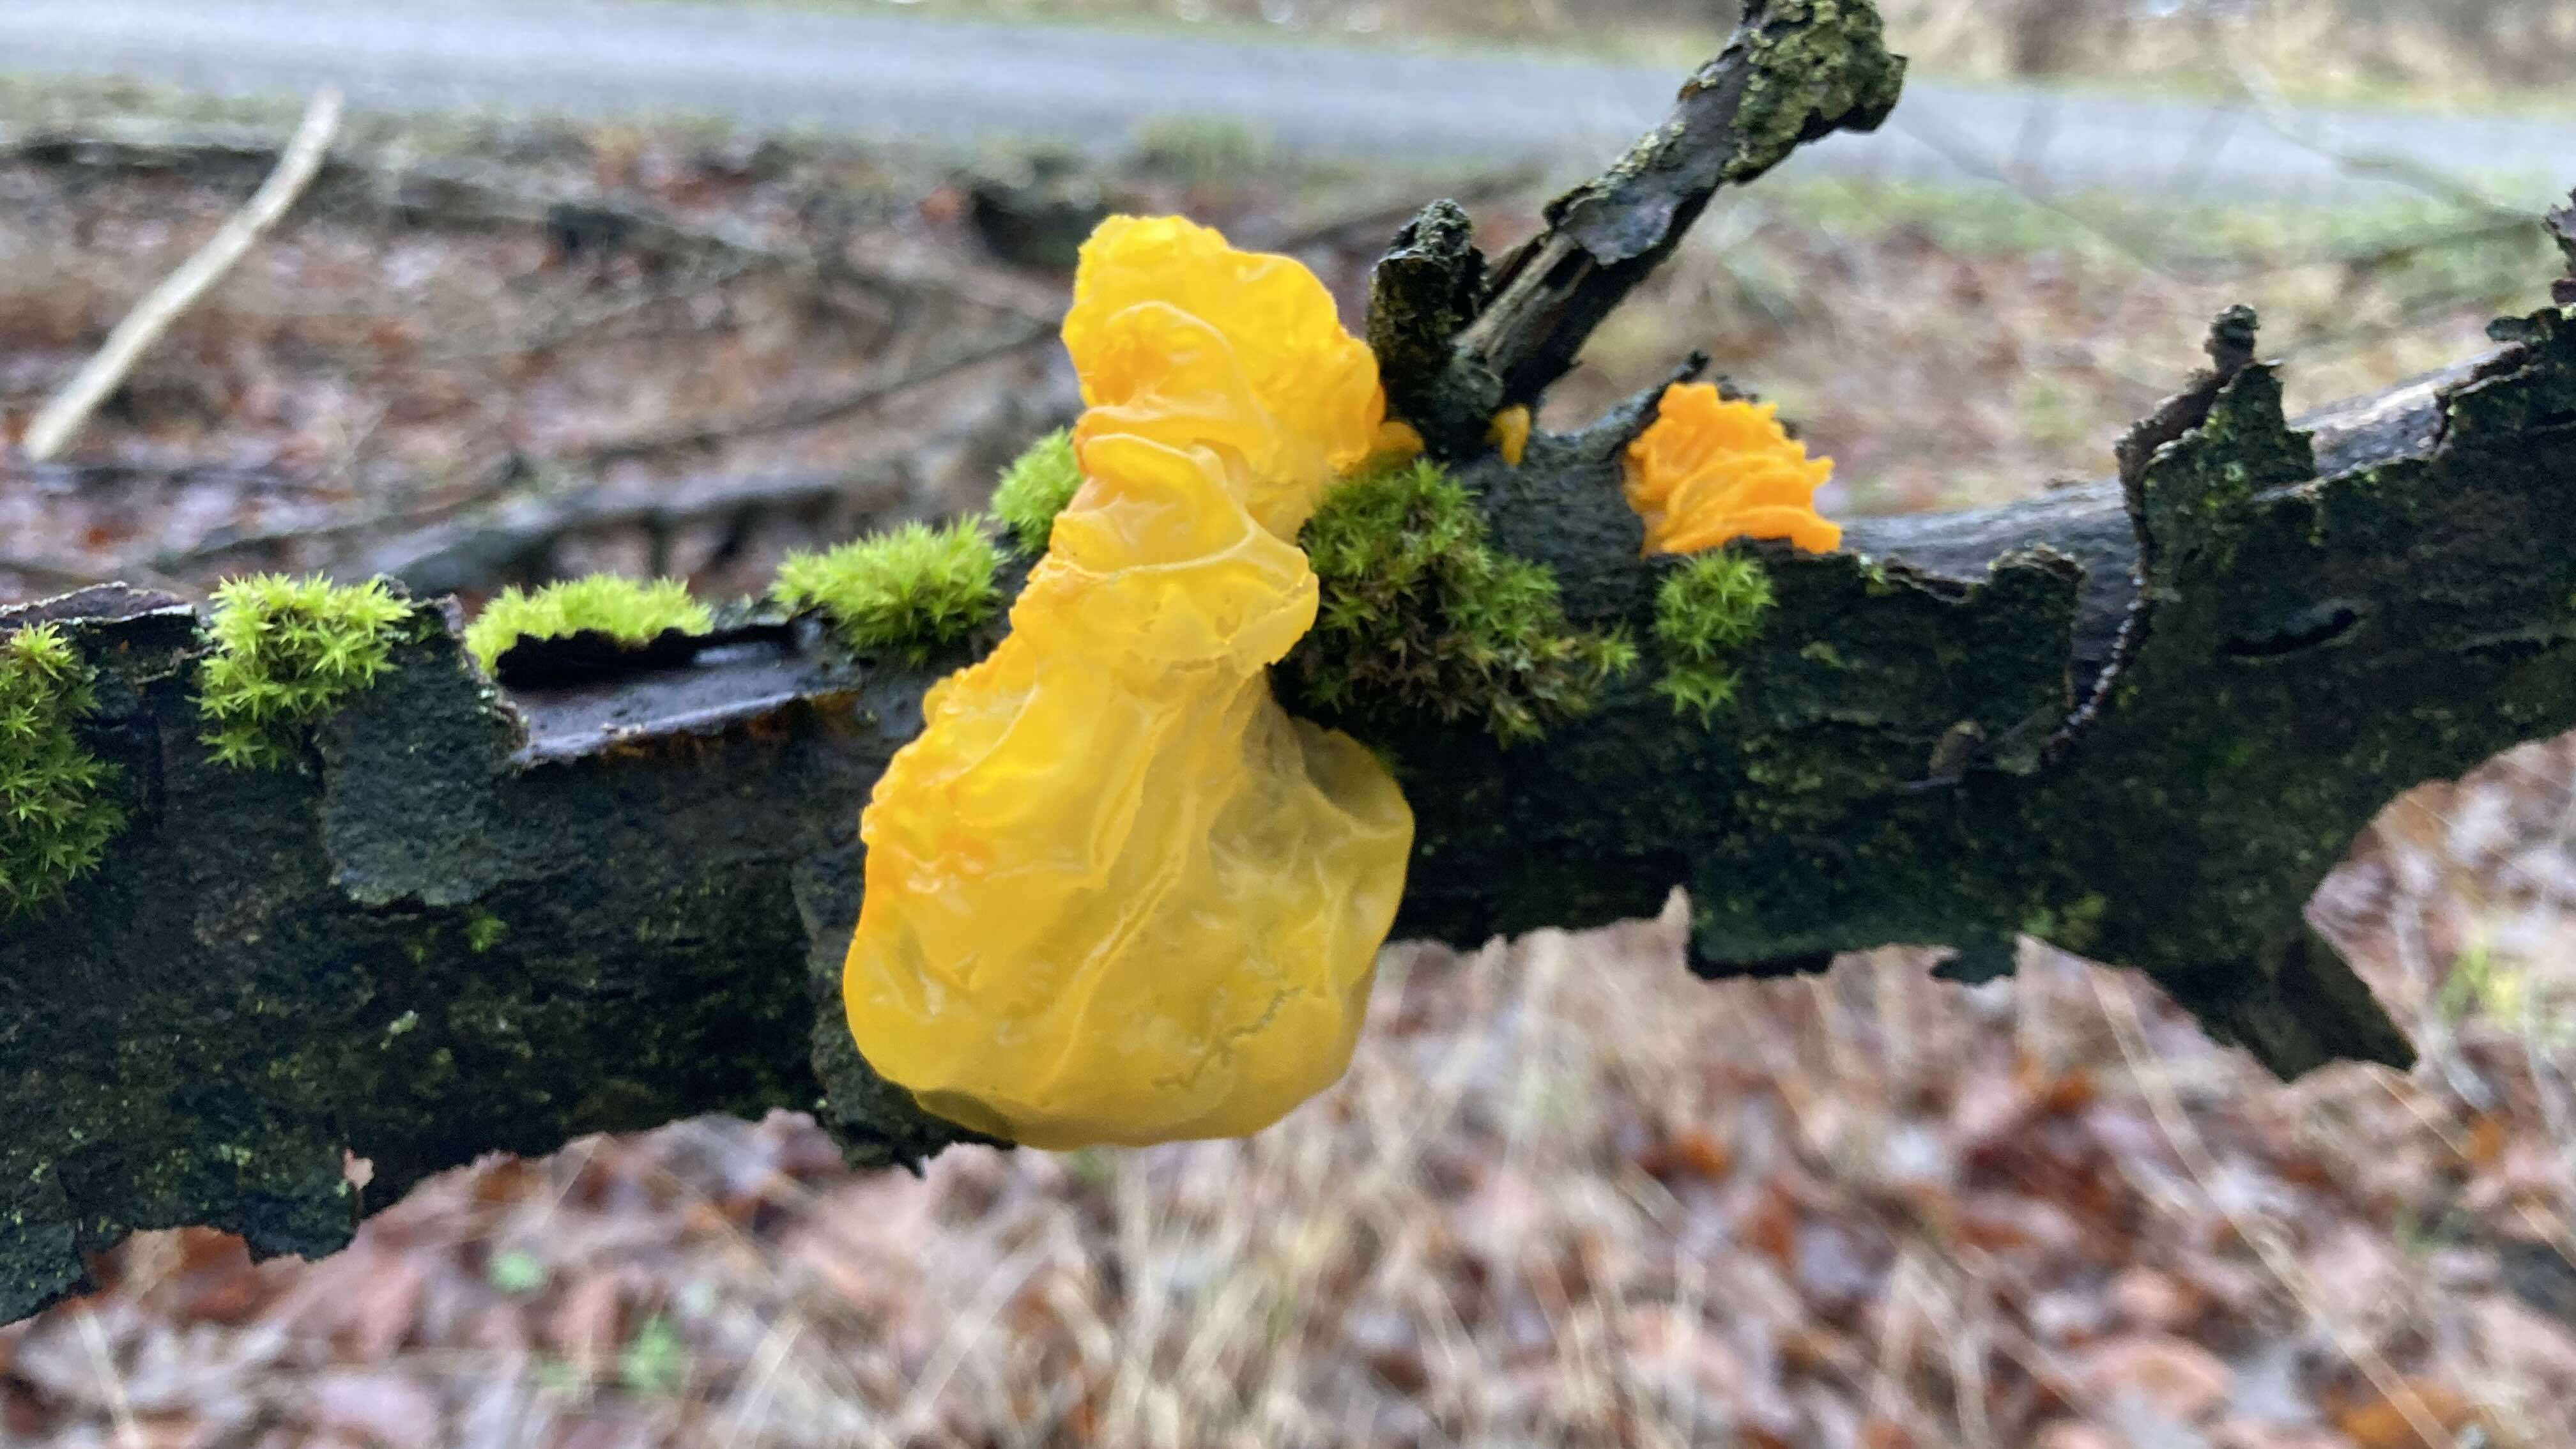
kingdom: Fungi
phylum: Basidiomycota
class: Tremellomycetes
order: Tremellales
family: Tremellaceae
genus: Tremella
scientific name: Tremella mesenterica
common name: gul bævresvamp
